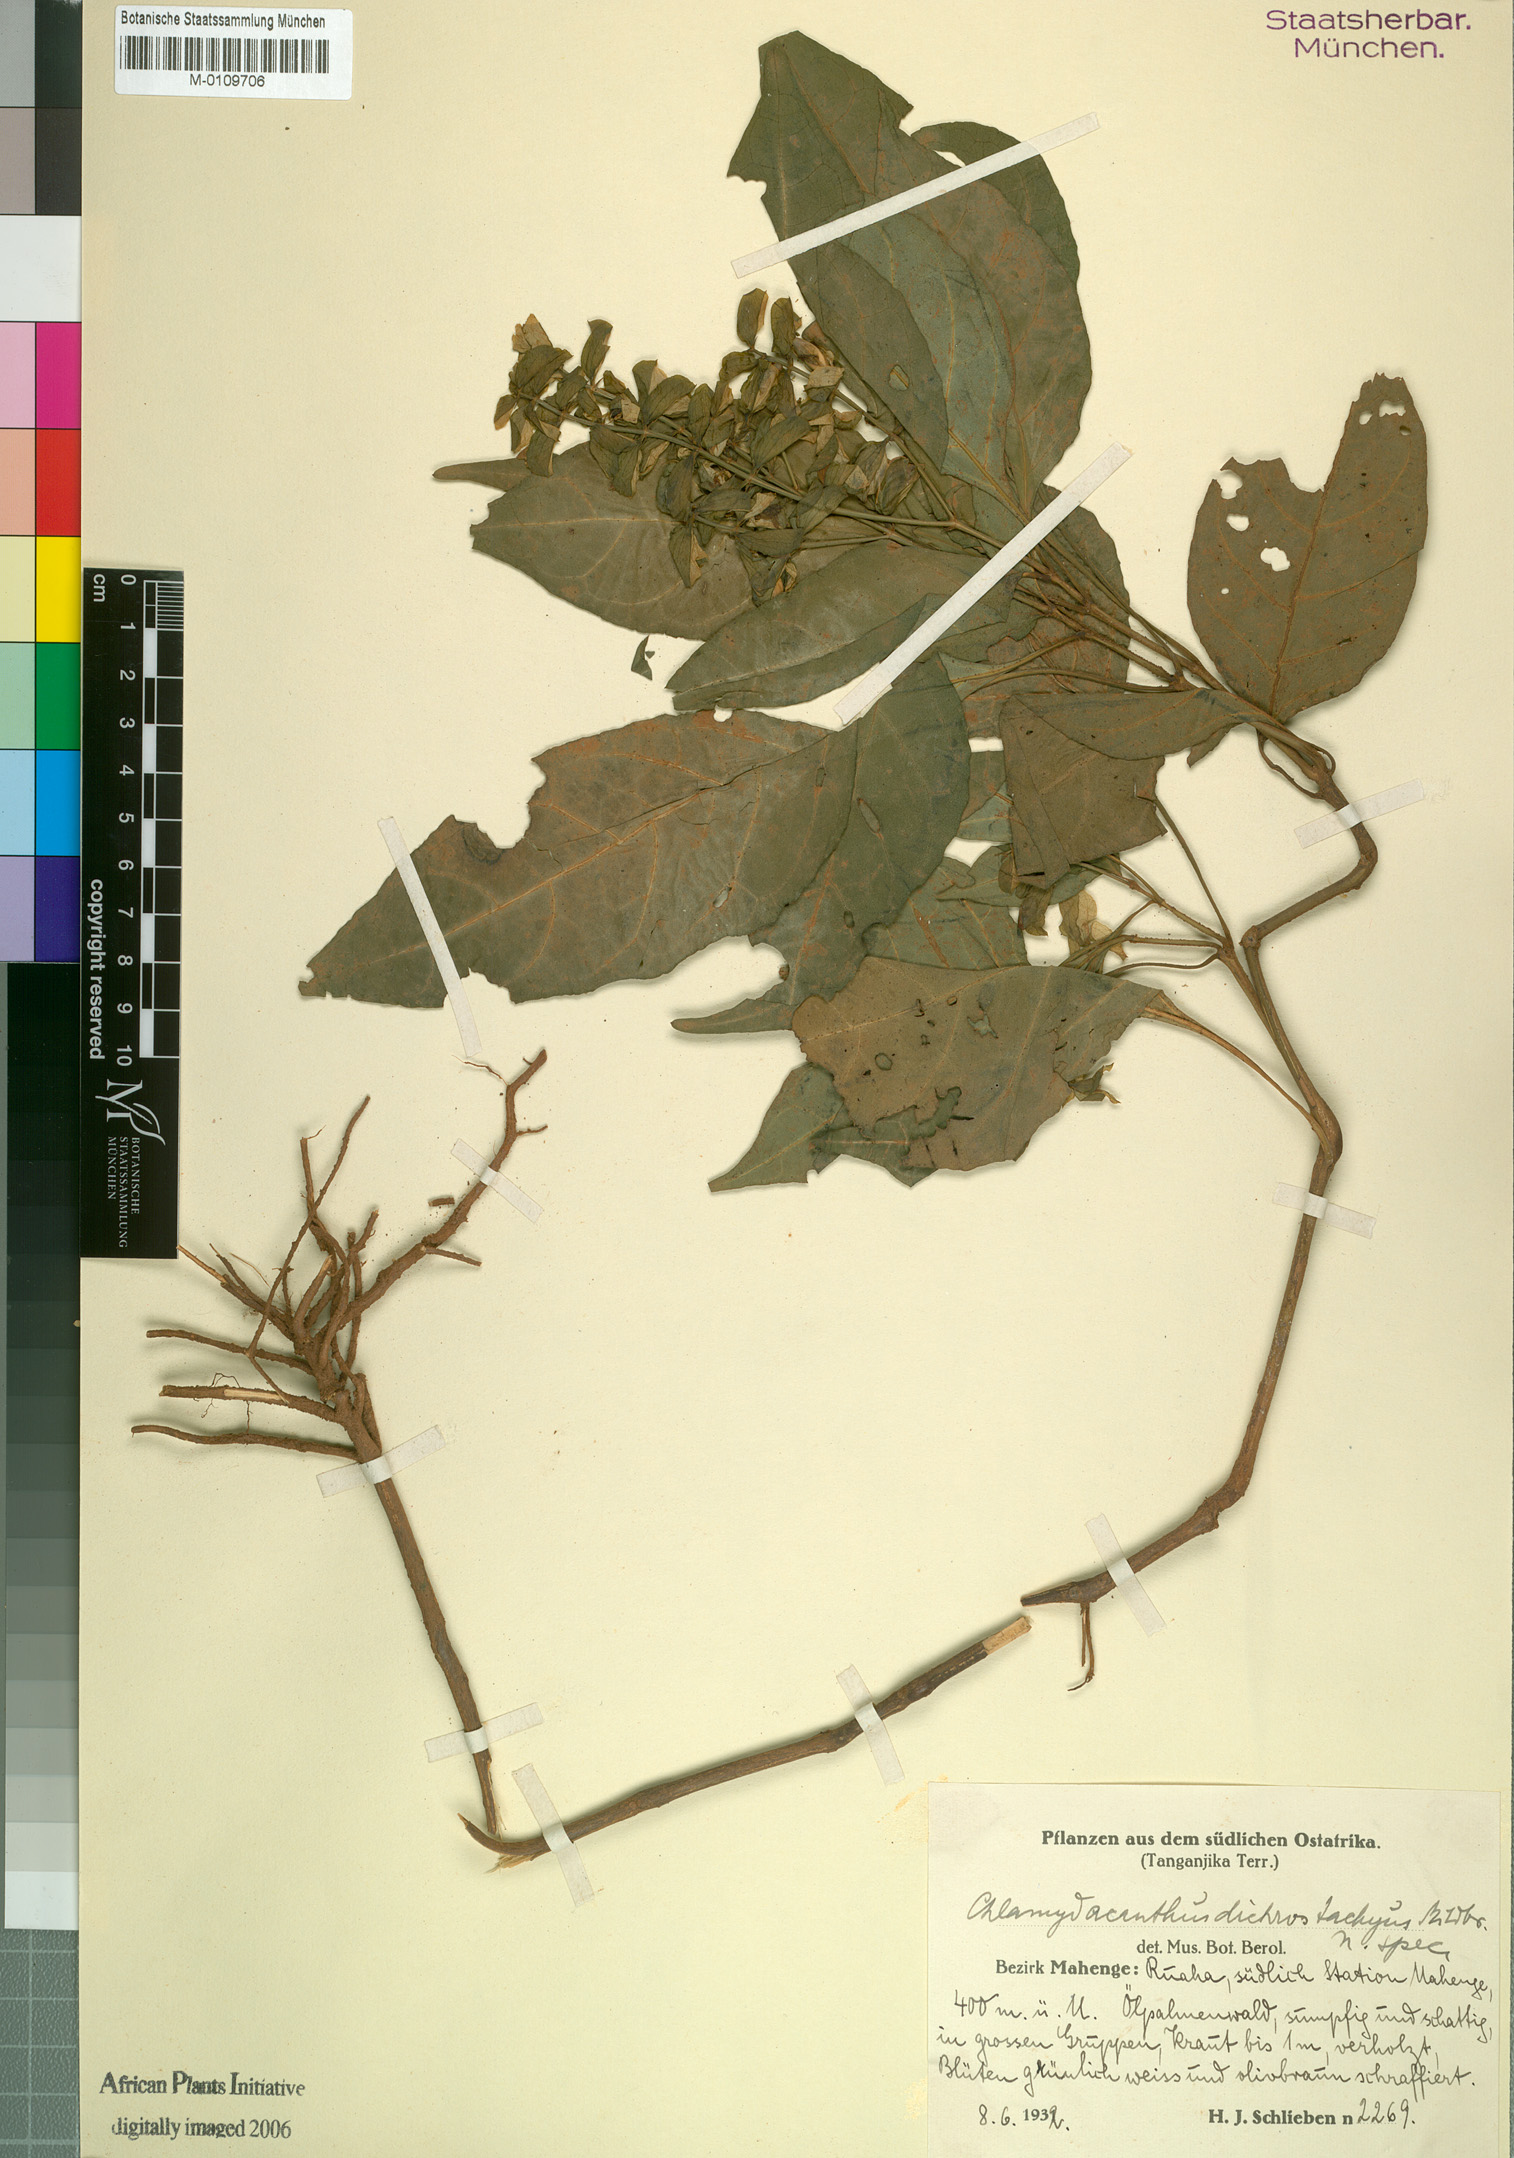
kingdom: Plantae
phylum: Tracheophyta
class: Magnoliopsida
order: Lamiales
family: Acanthaceae
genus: Chlamydacanthus
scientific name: Chlamydacanthus lindavianus
